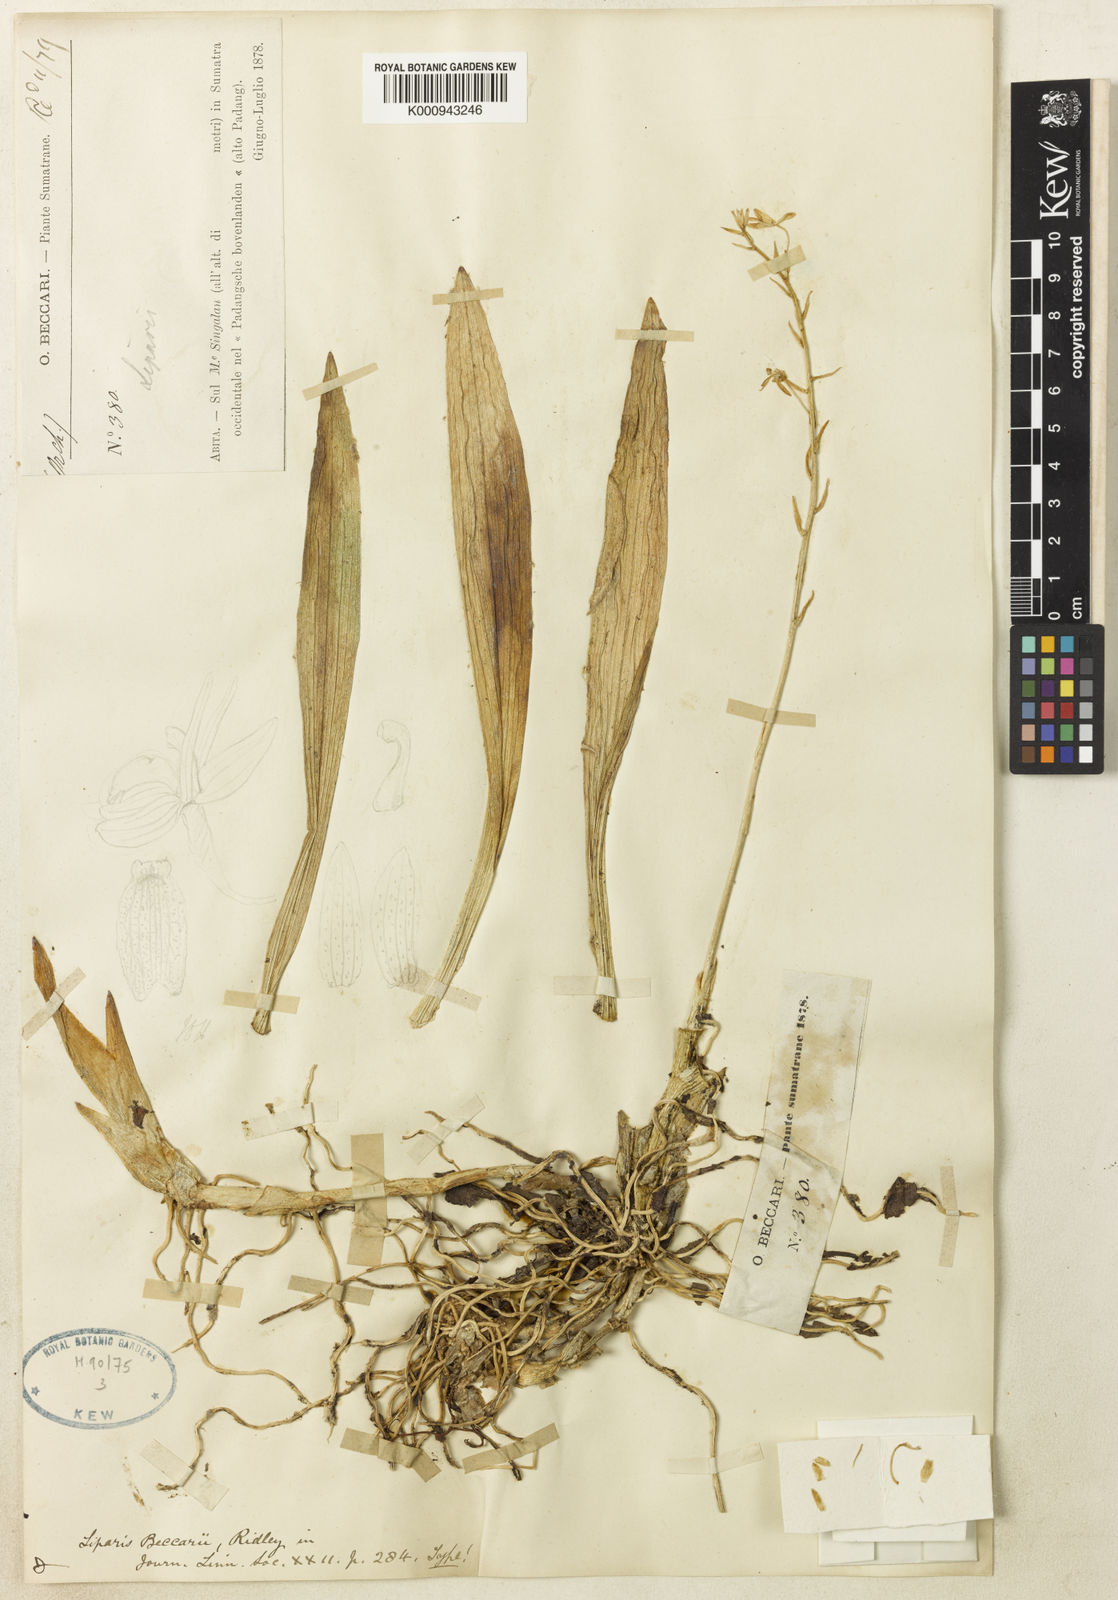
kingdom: Plantae
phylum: Tracheophyta
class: Liliopsida
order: Asparagales
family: Orchidaceae
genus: Liparis
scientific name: Liparis beccarii
